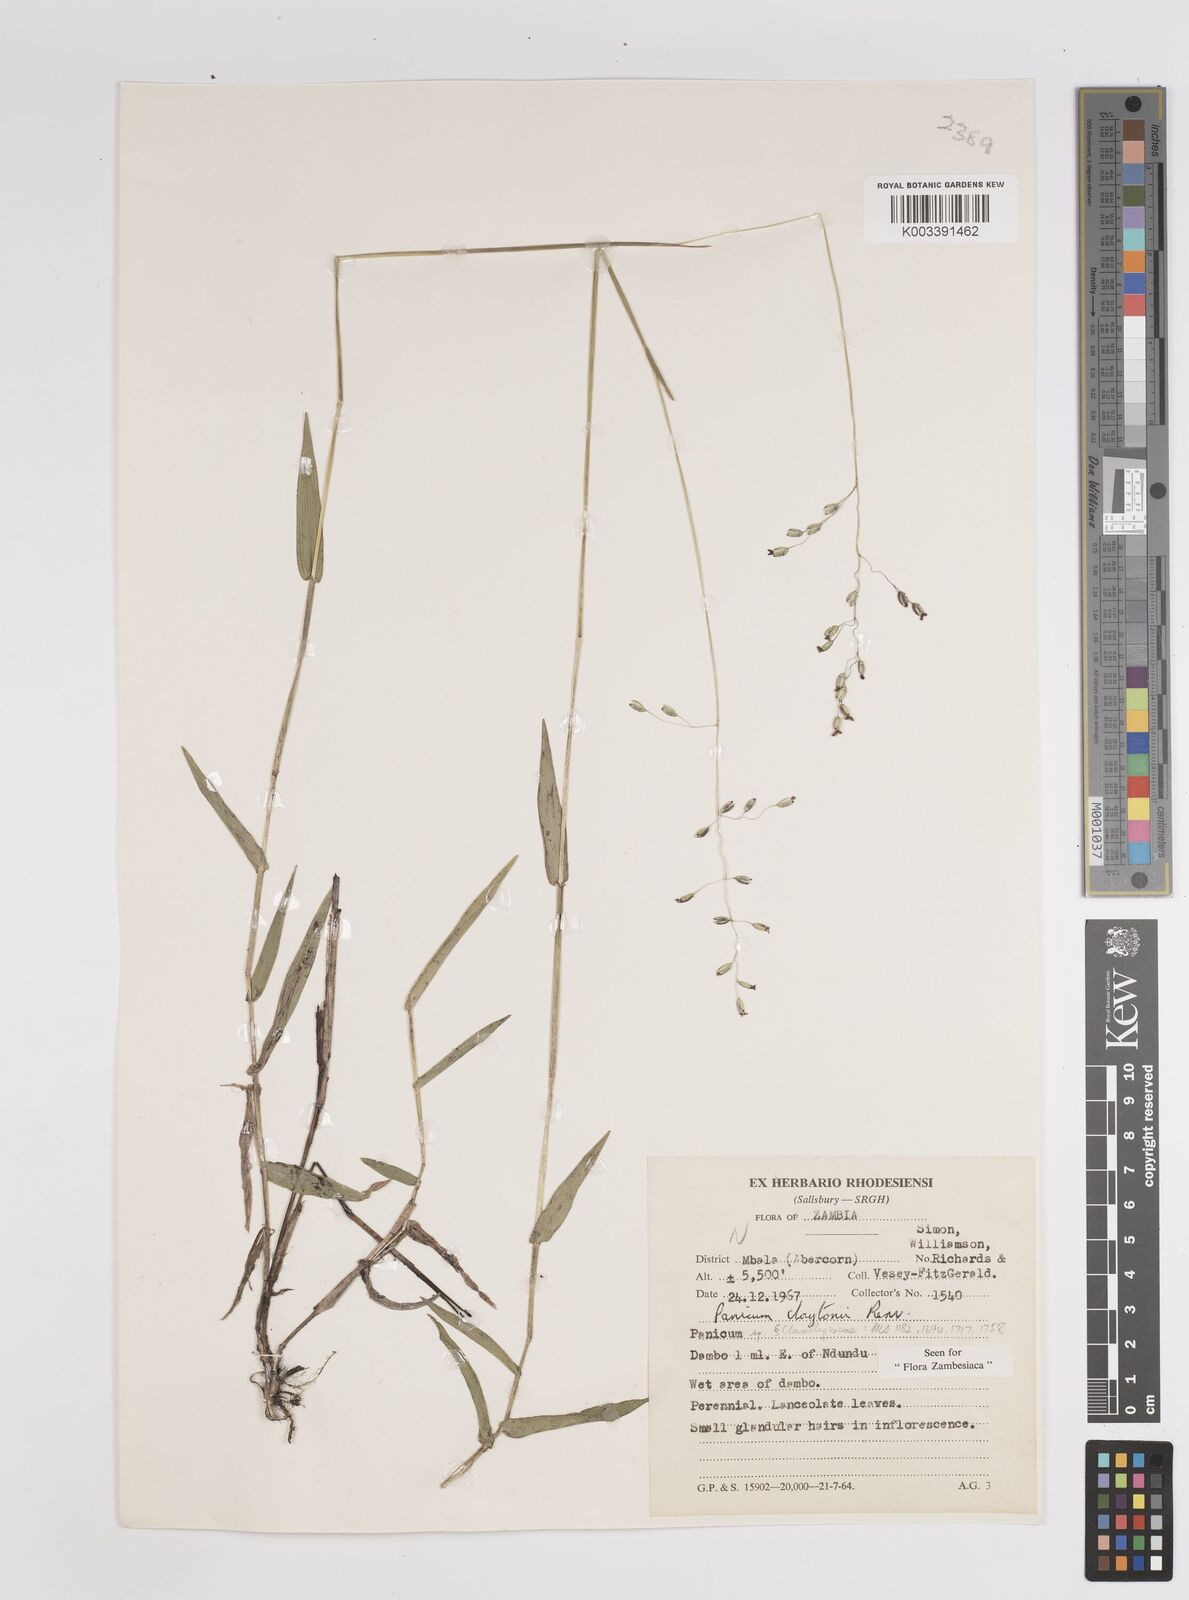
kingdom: Plantae
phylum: Tracheophyta
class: Liliopsida
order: Poales
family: Poaceae
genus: Adenochloa
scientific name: Adenochloa claytonii
